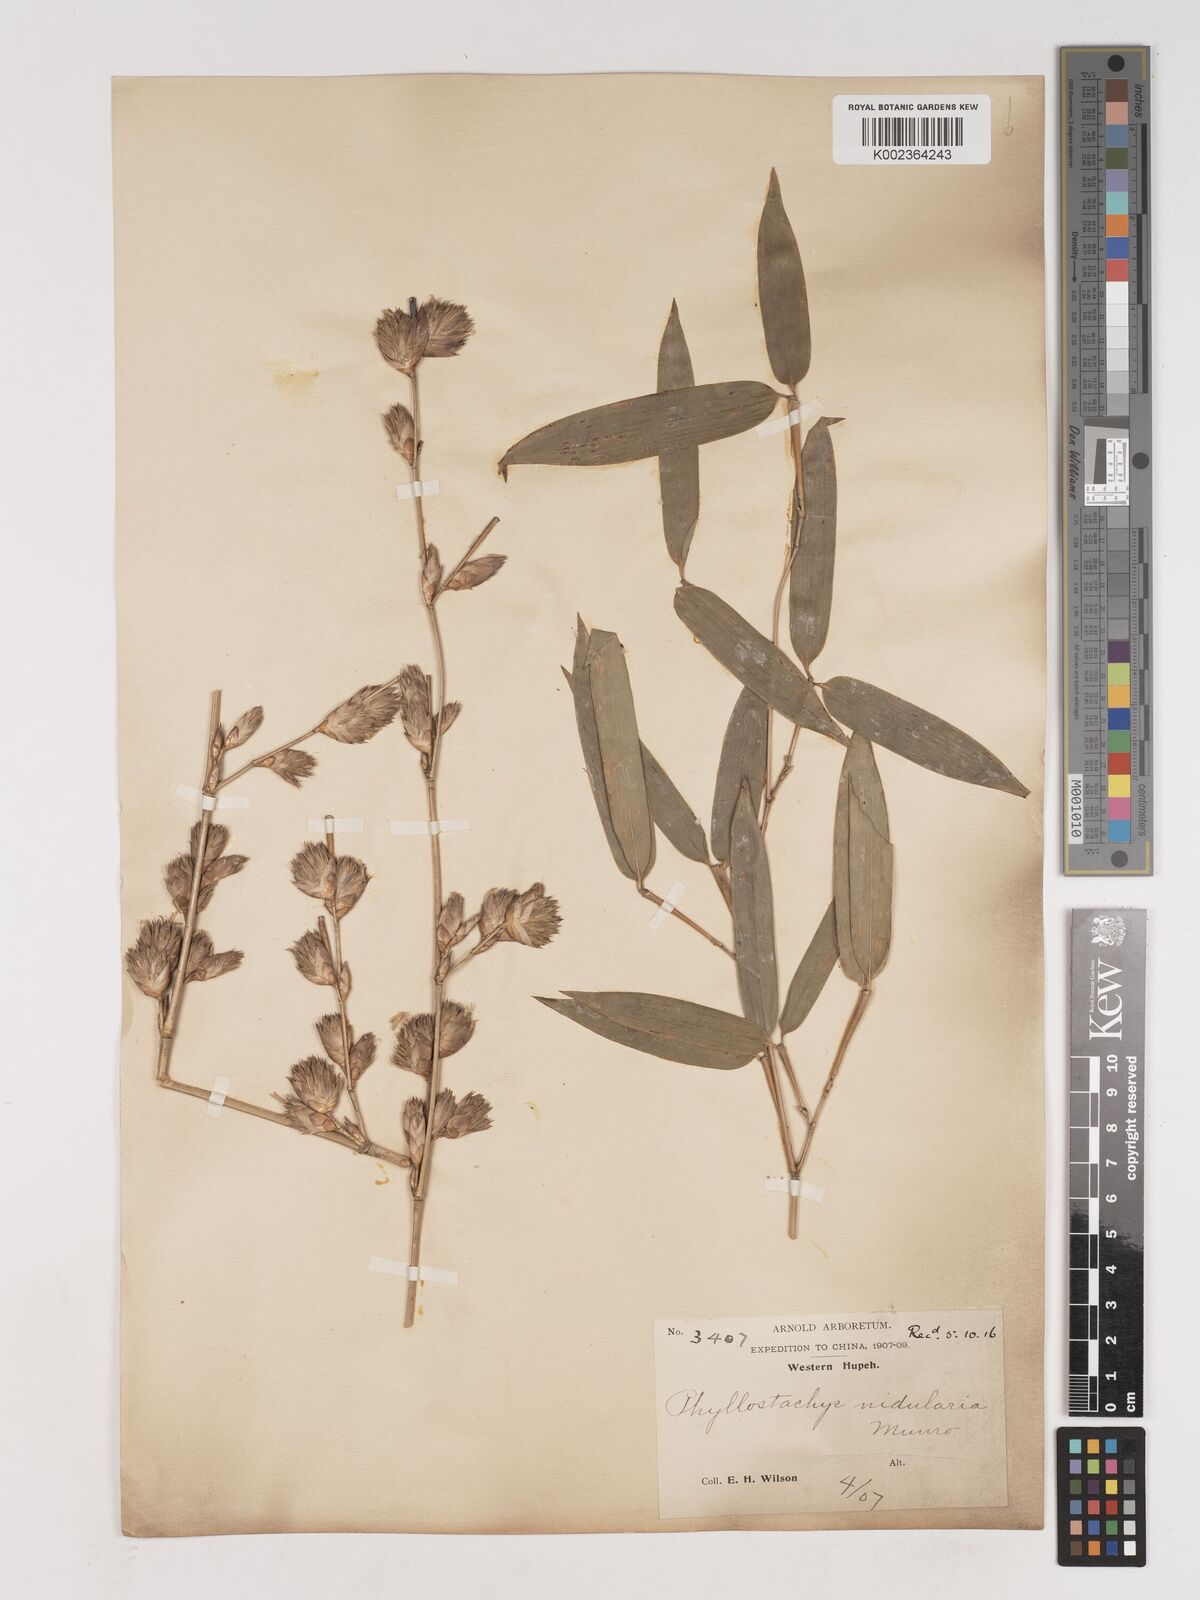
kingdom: Plantae
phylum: Tracheophyta
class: Liliopsida
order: Poales
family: Poaceae
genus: Phyllostachys
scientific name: Phyllostachys nidularia
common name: Broom bamboo
